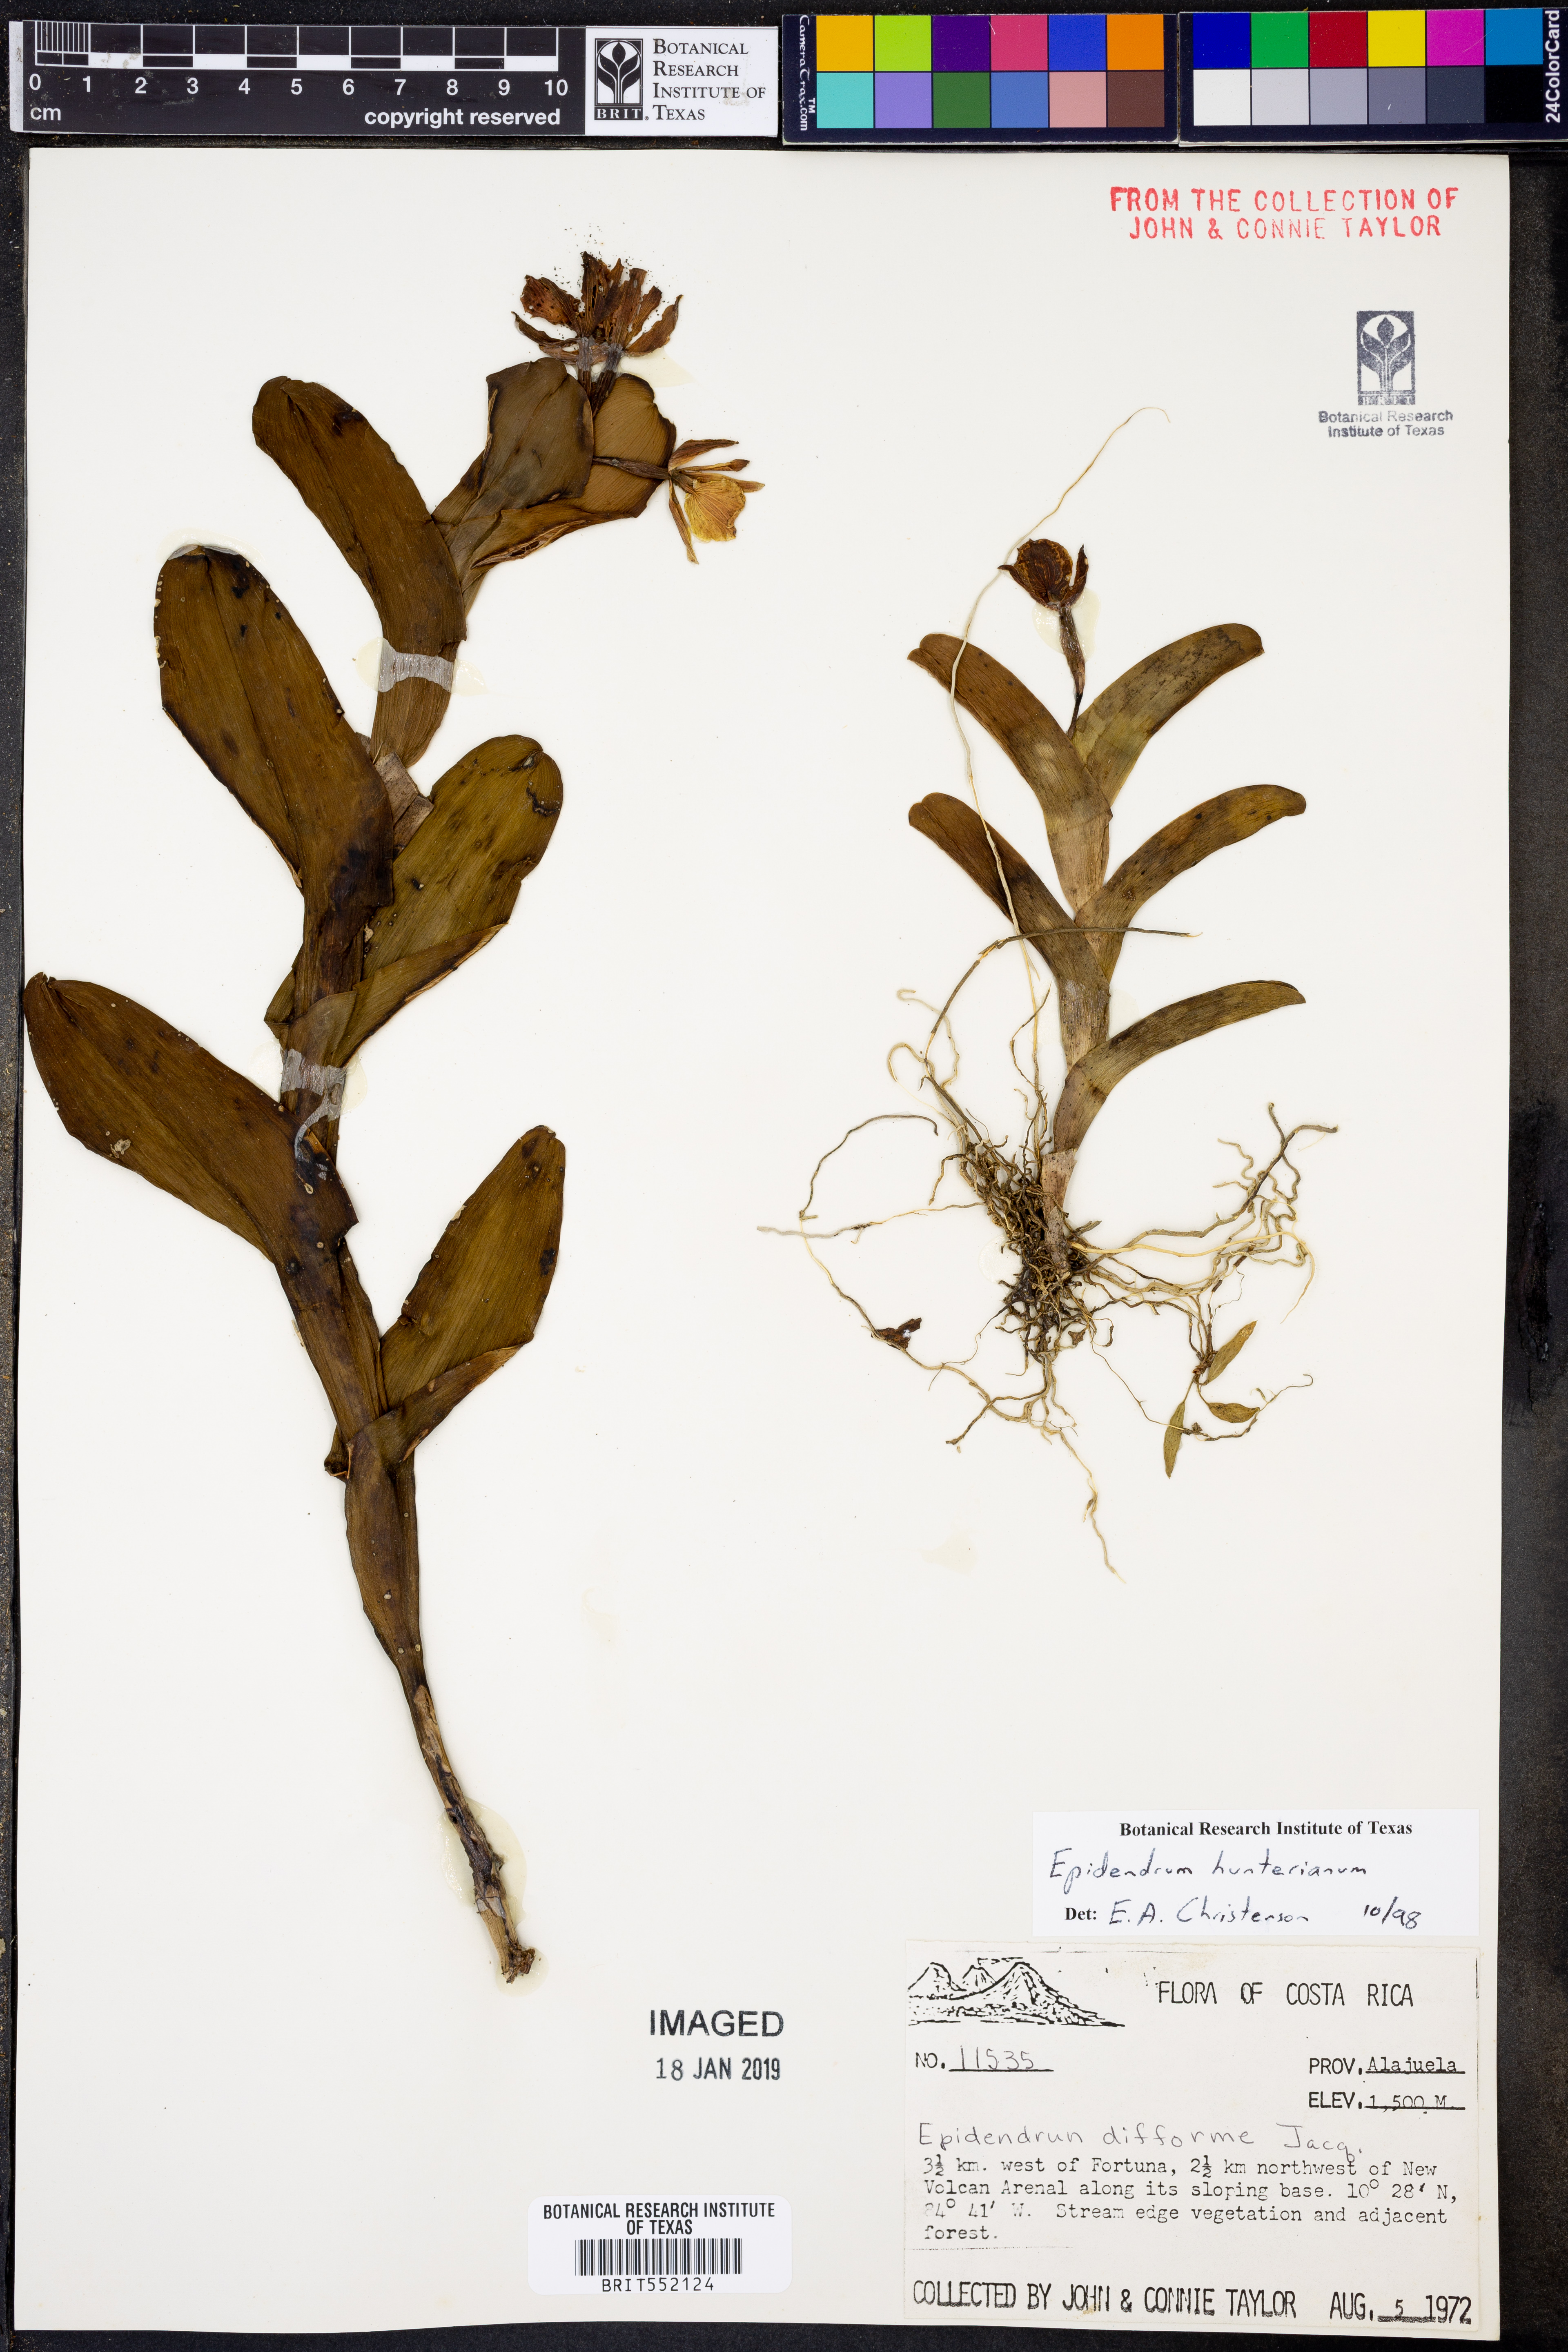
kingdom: Plantae
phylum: Tracheophyta
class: Liliopsida
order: Asparagales
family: Orchidaceae
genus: Epidendrum
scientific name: Epidendrum hunterianum
